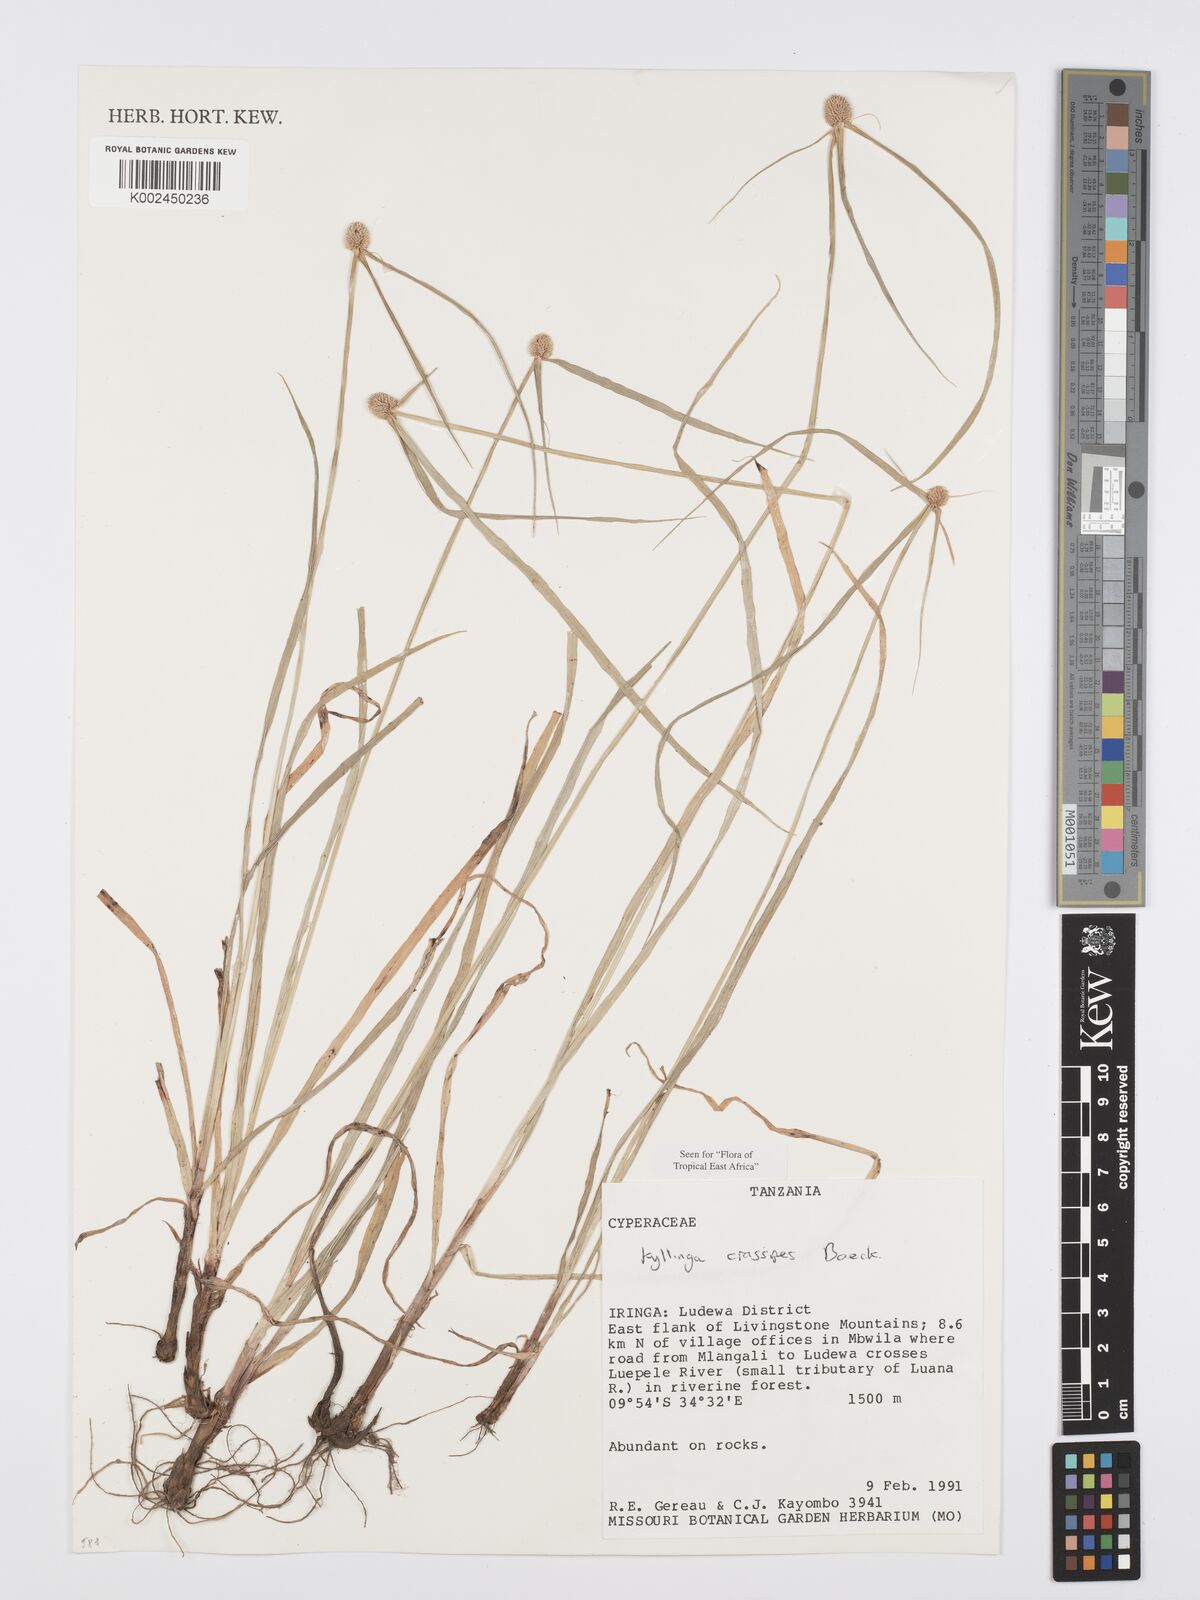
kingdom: Plantae
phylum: Tracheophyta
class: Liliopsida
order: Poales
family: Cyperaceae
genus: Cyperus
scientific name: Cyperus crassipes
